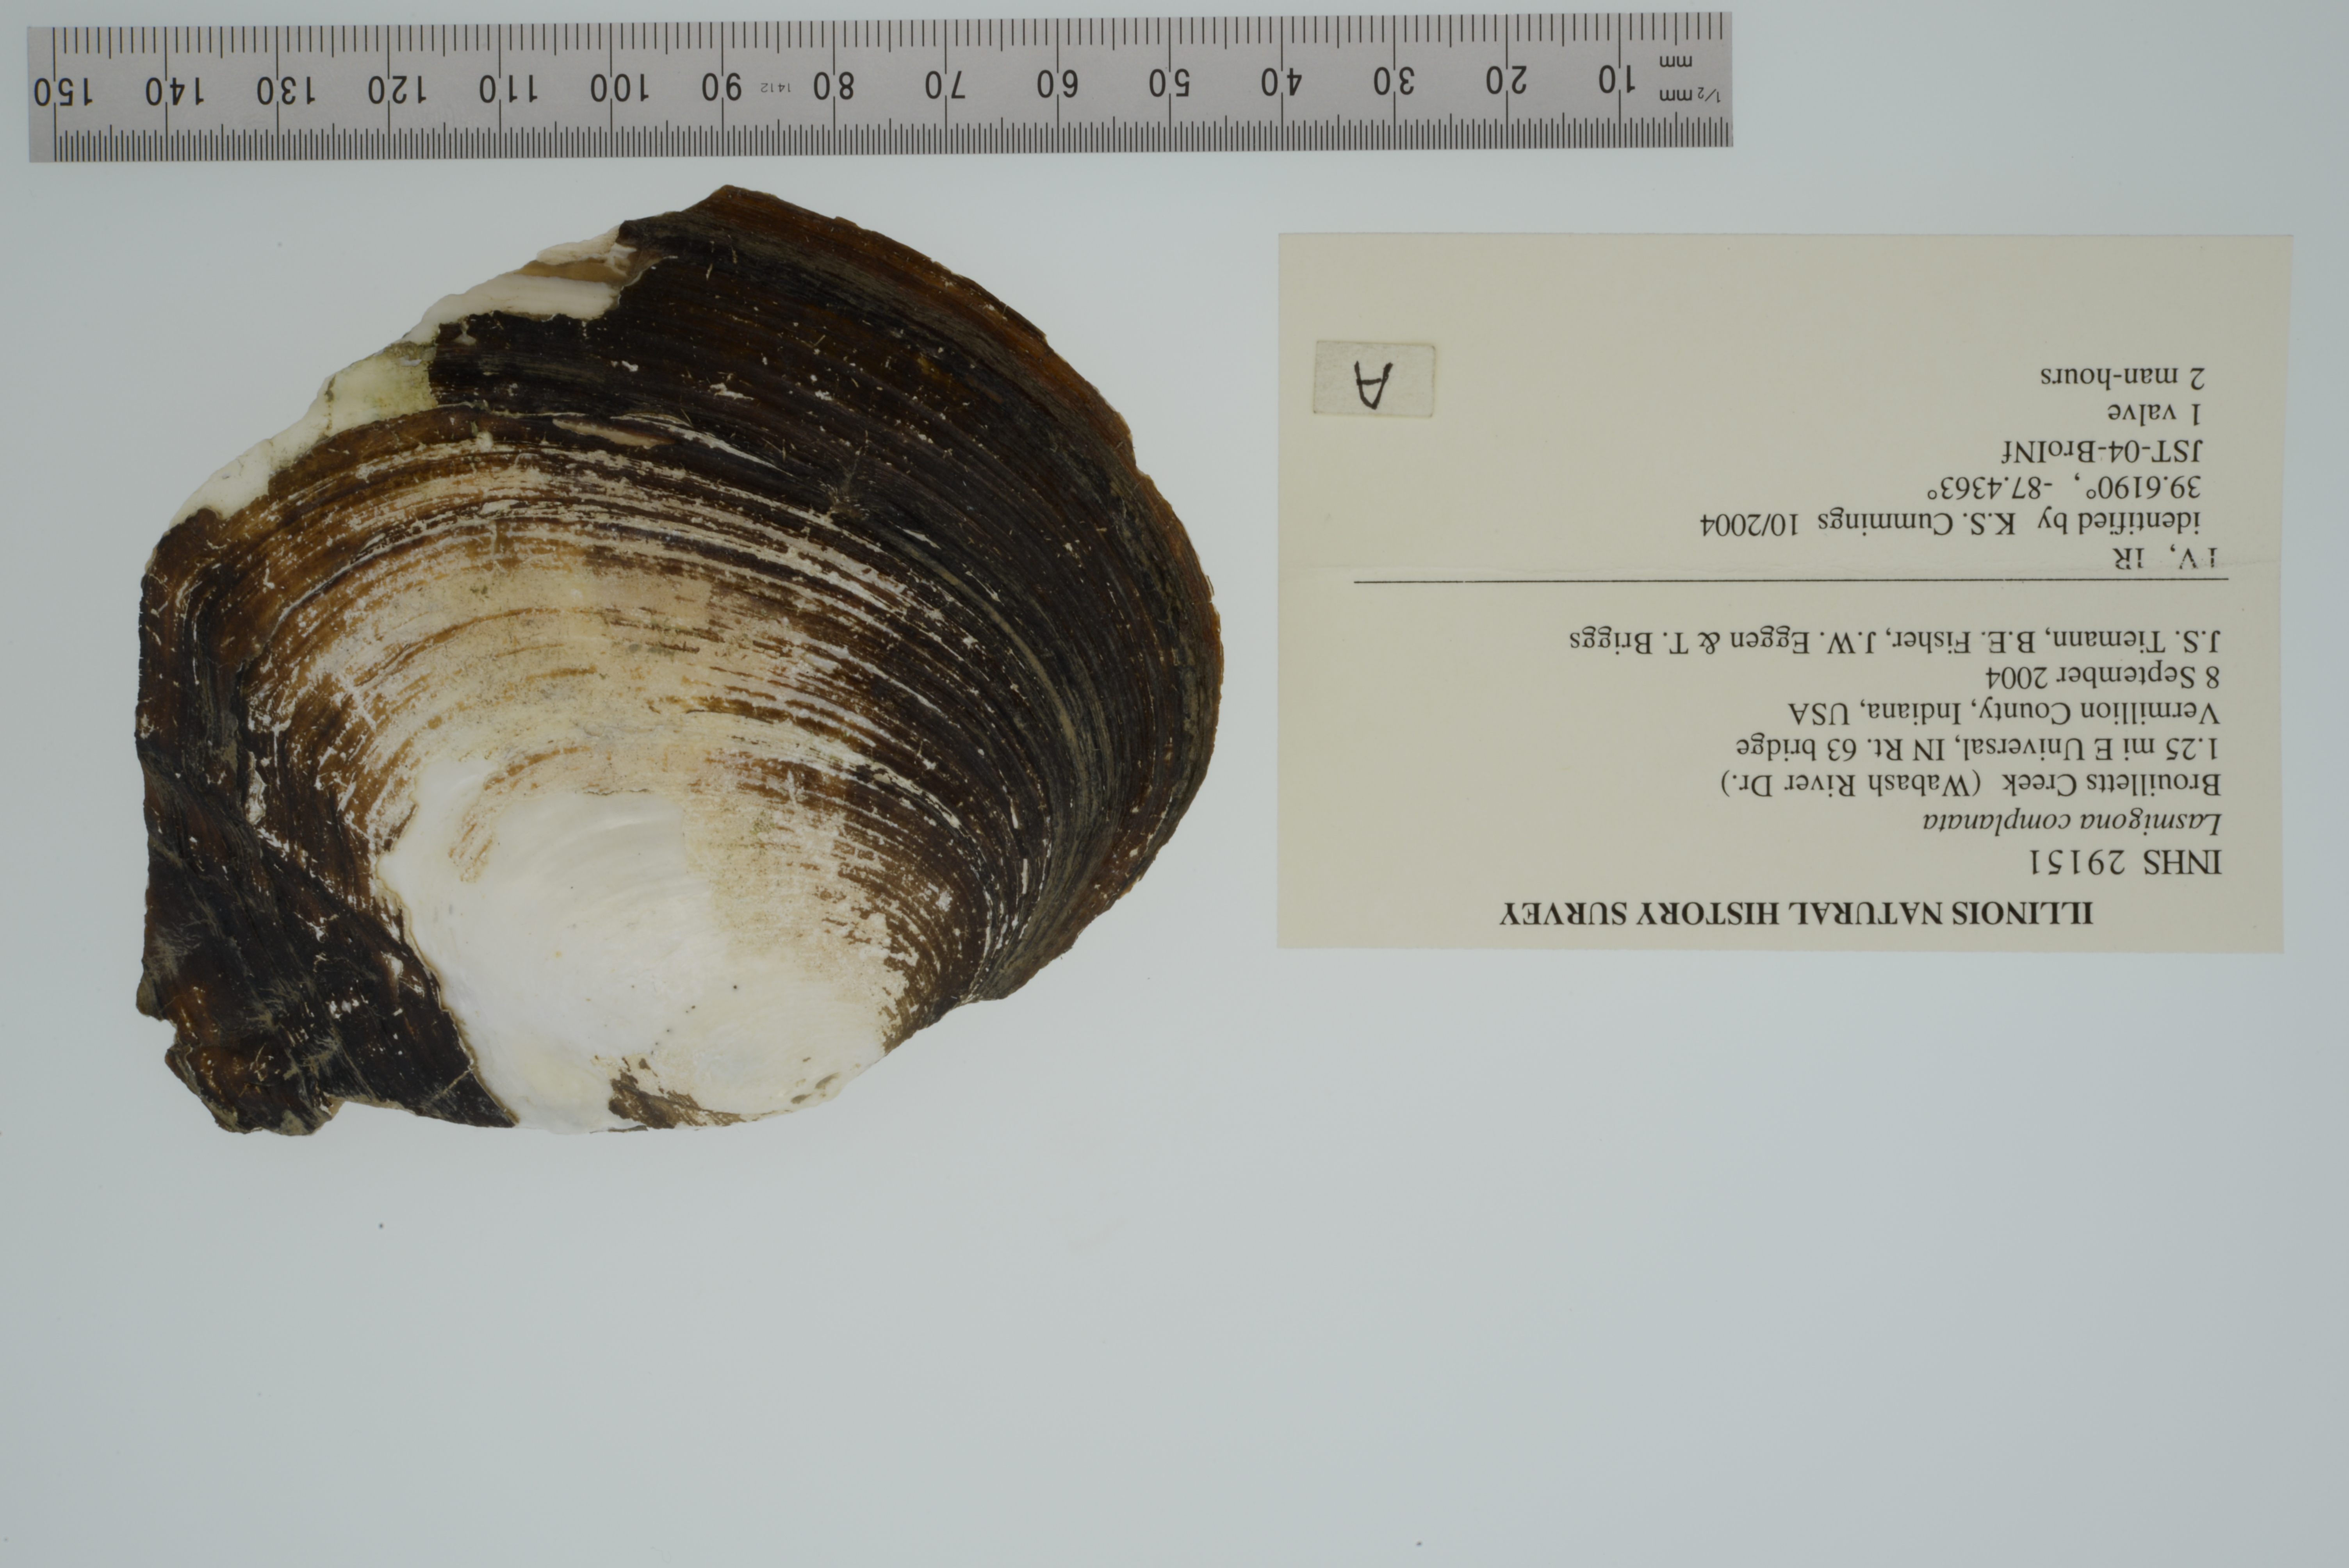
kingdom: Animalia
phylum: Mollusca
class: Bivalvia
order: Unionida
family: Unionidae
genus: Lasmigona
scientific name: Lasmigona complanata
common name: White heelsplitter
